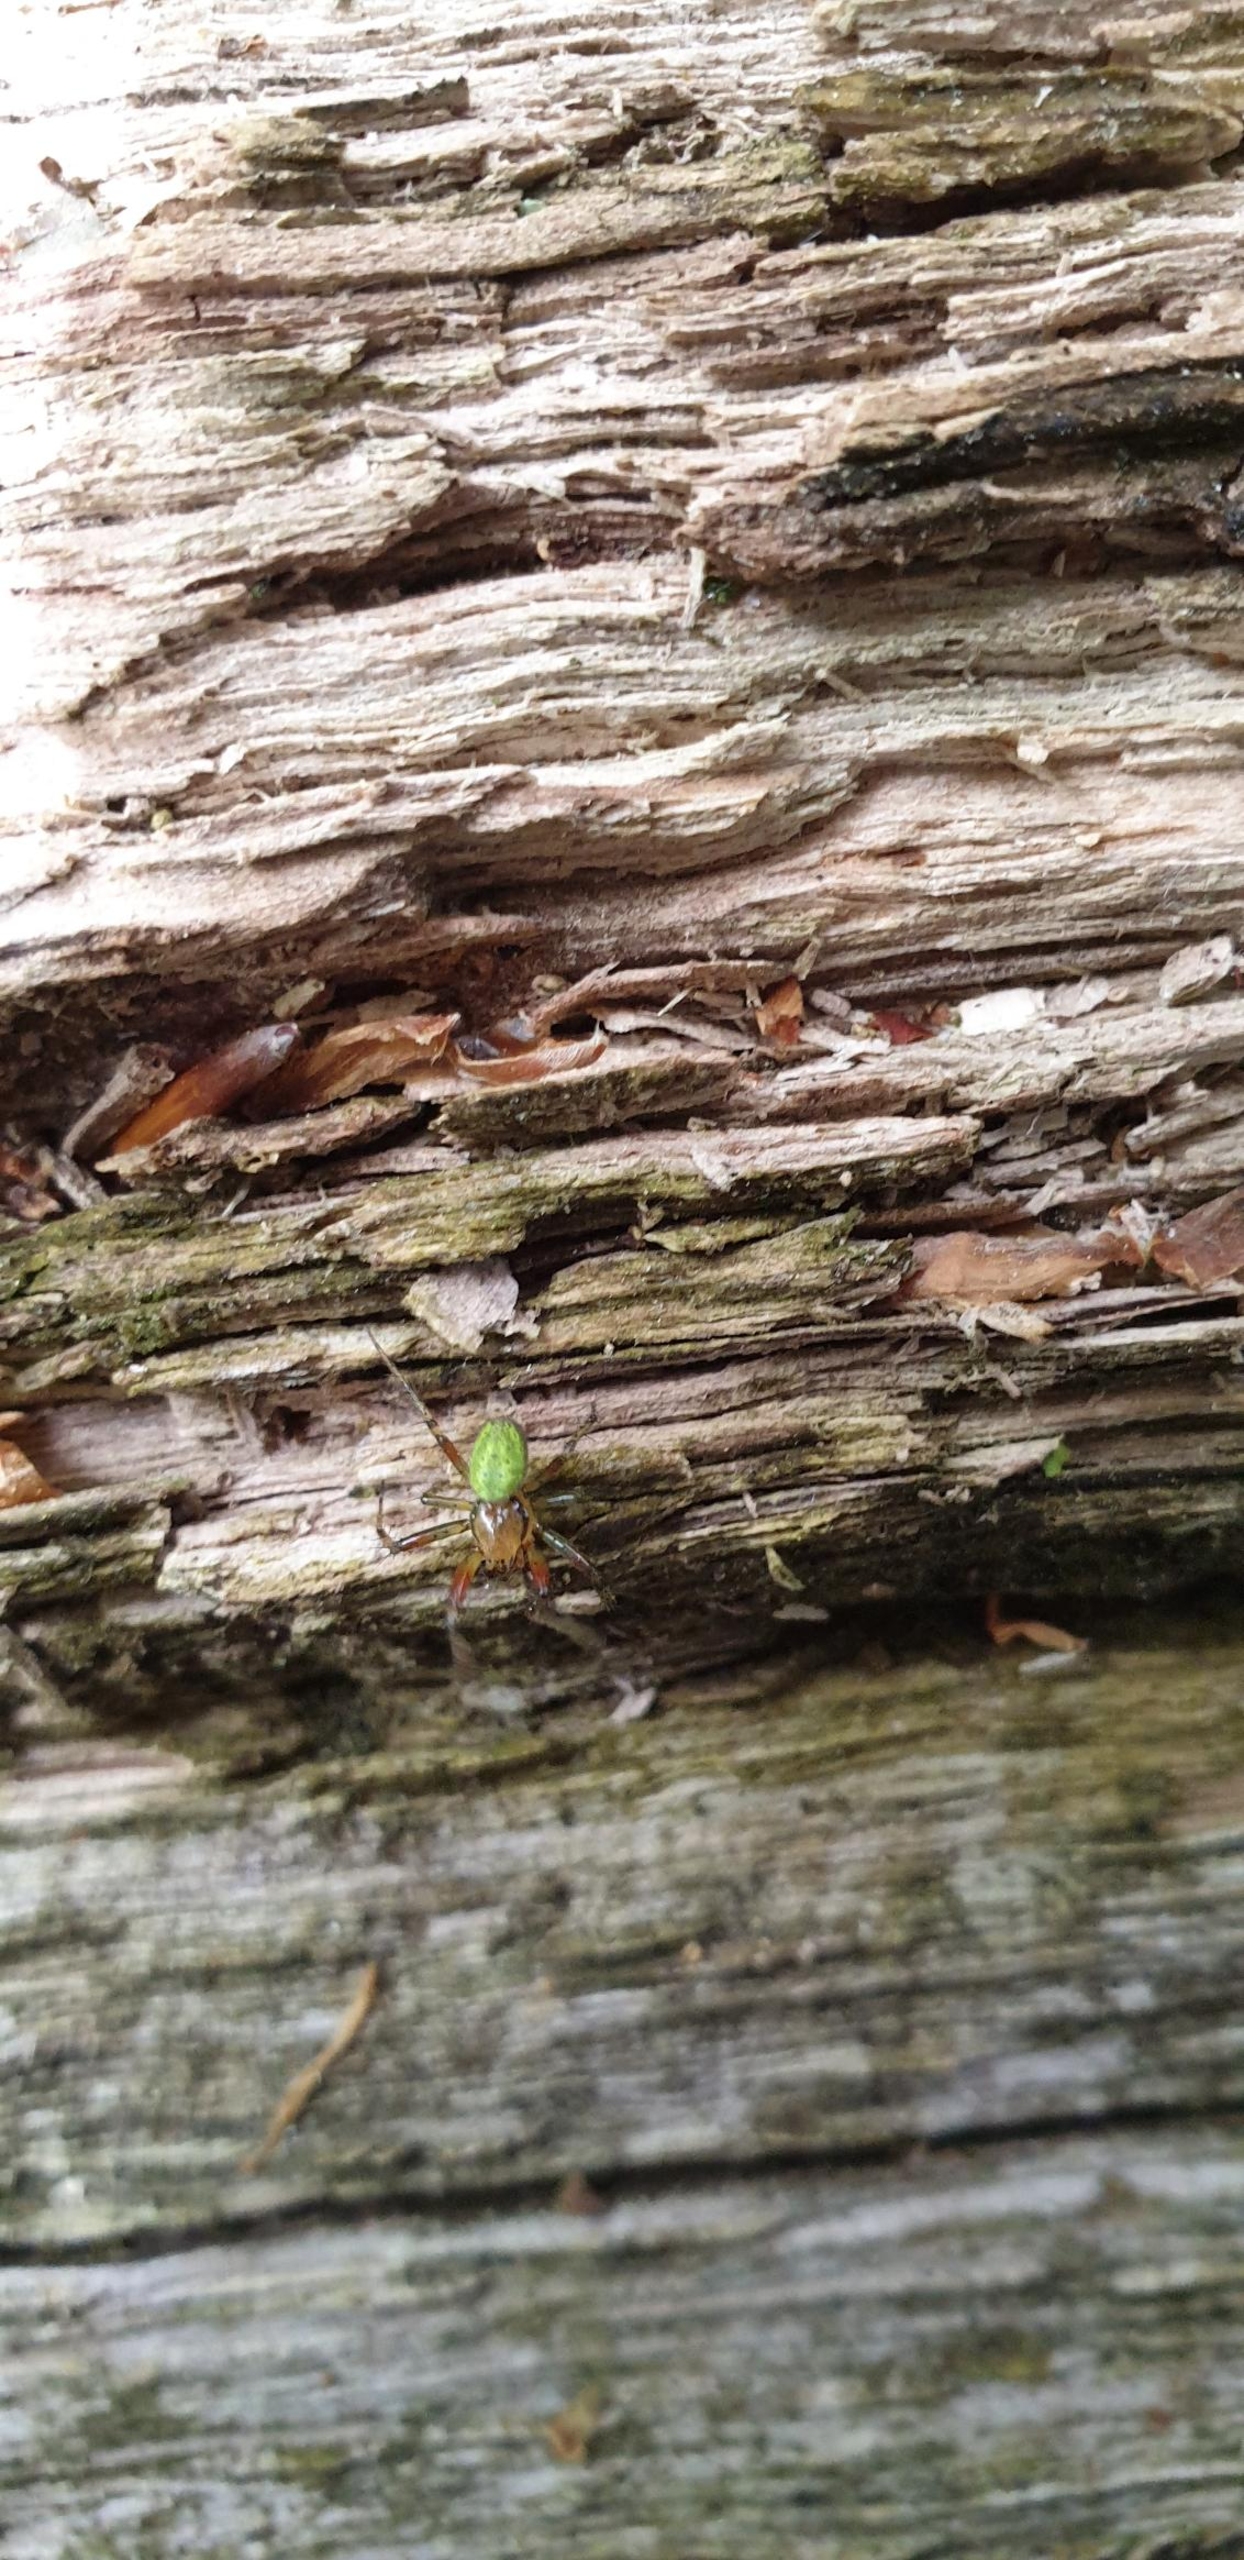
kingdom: Animalia
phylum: Arthropoda
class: Arachnida
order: Araneae
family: Araneidae
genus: Araniella
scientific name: Araniella
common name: Agurkeedderkopslægten
